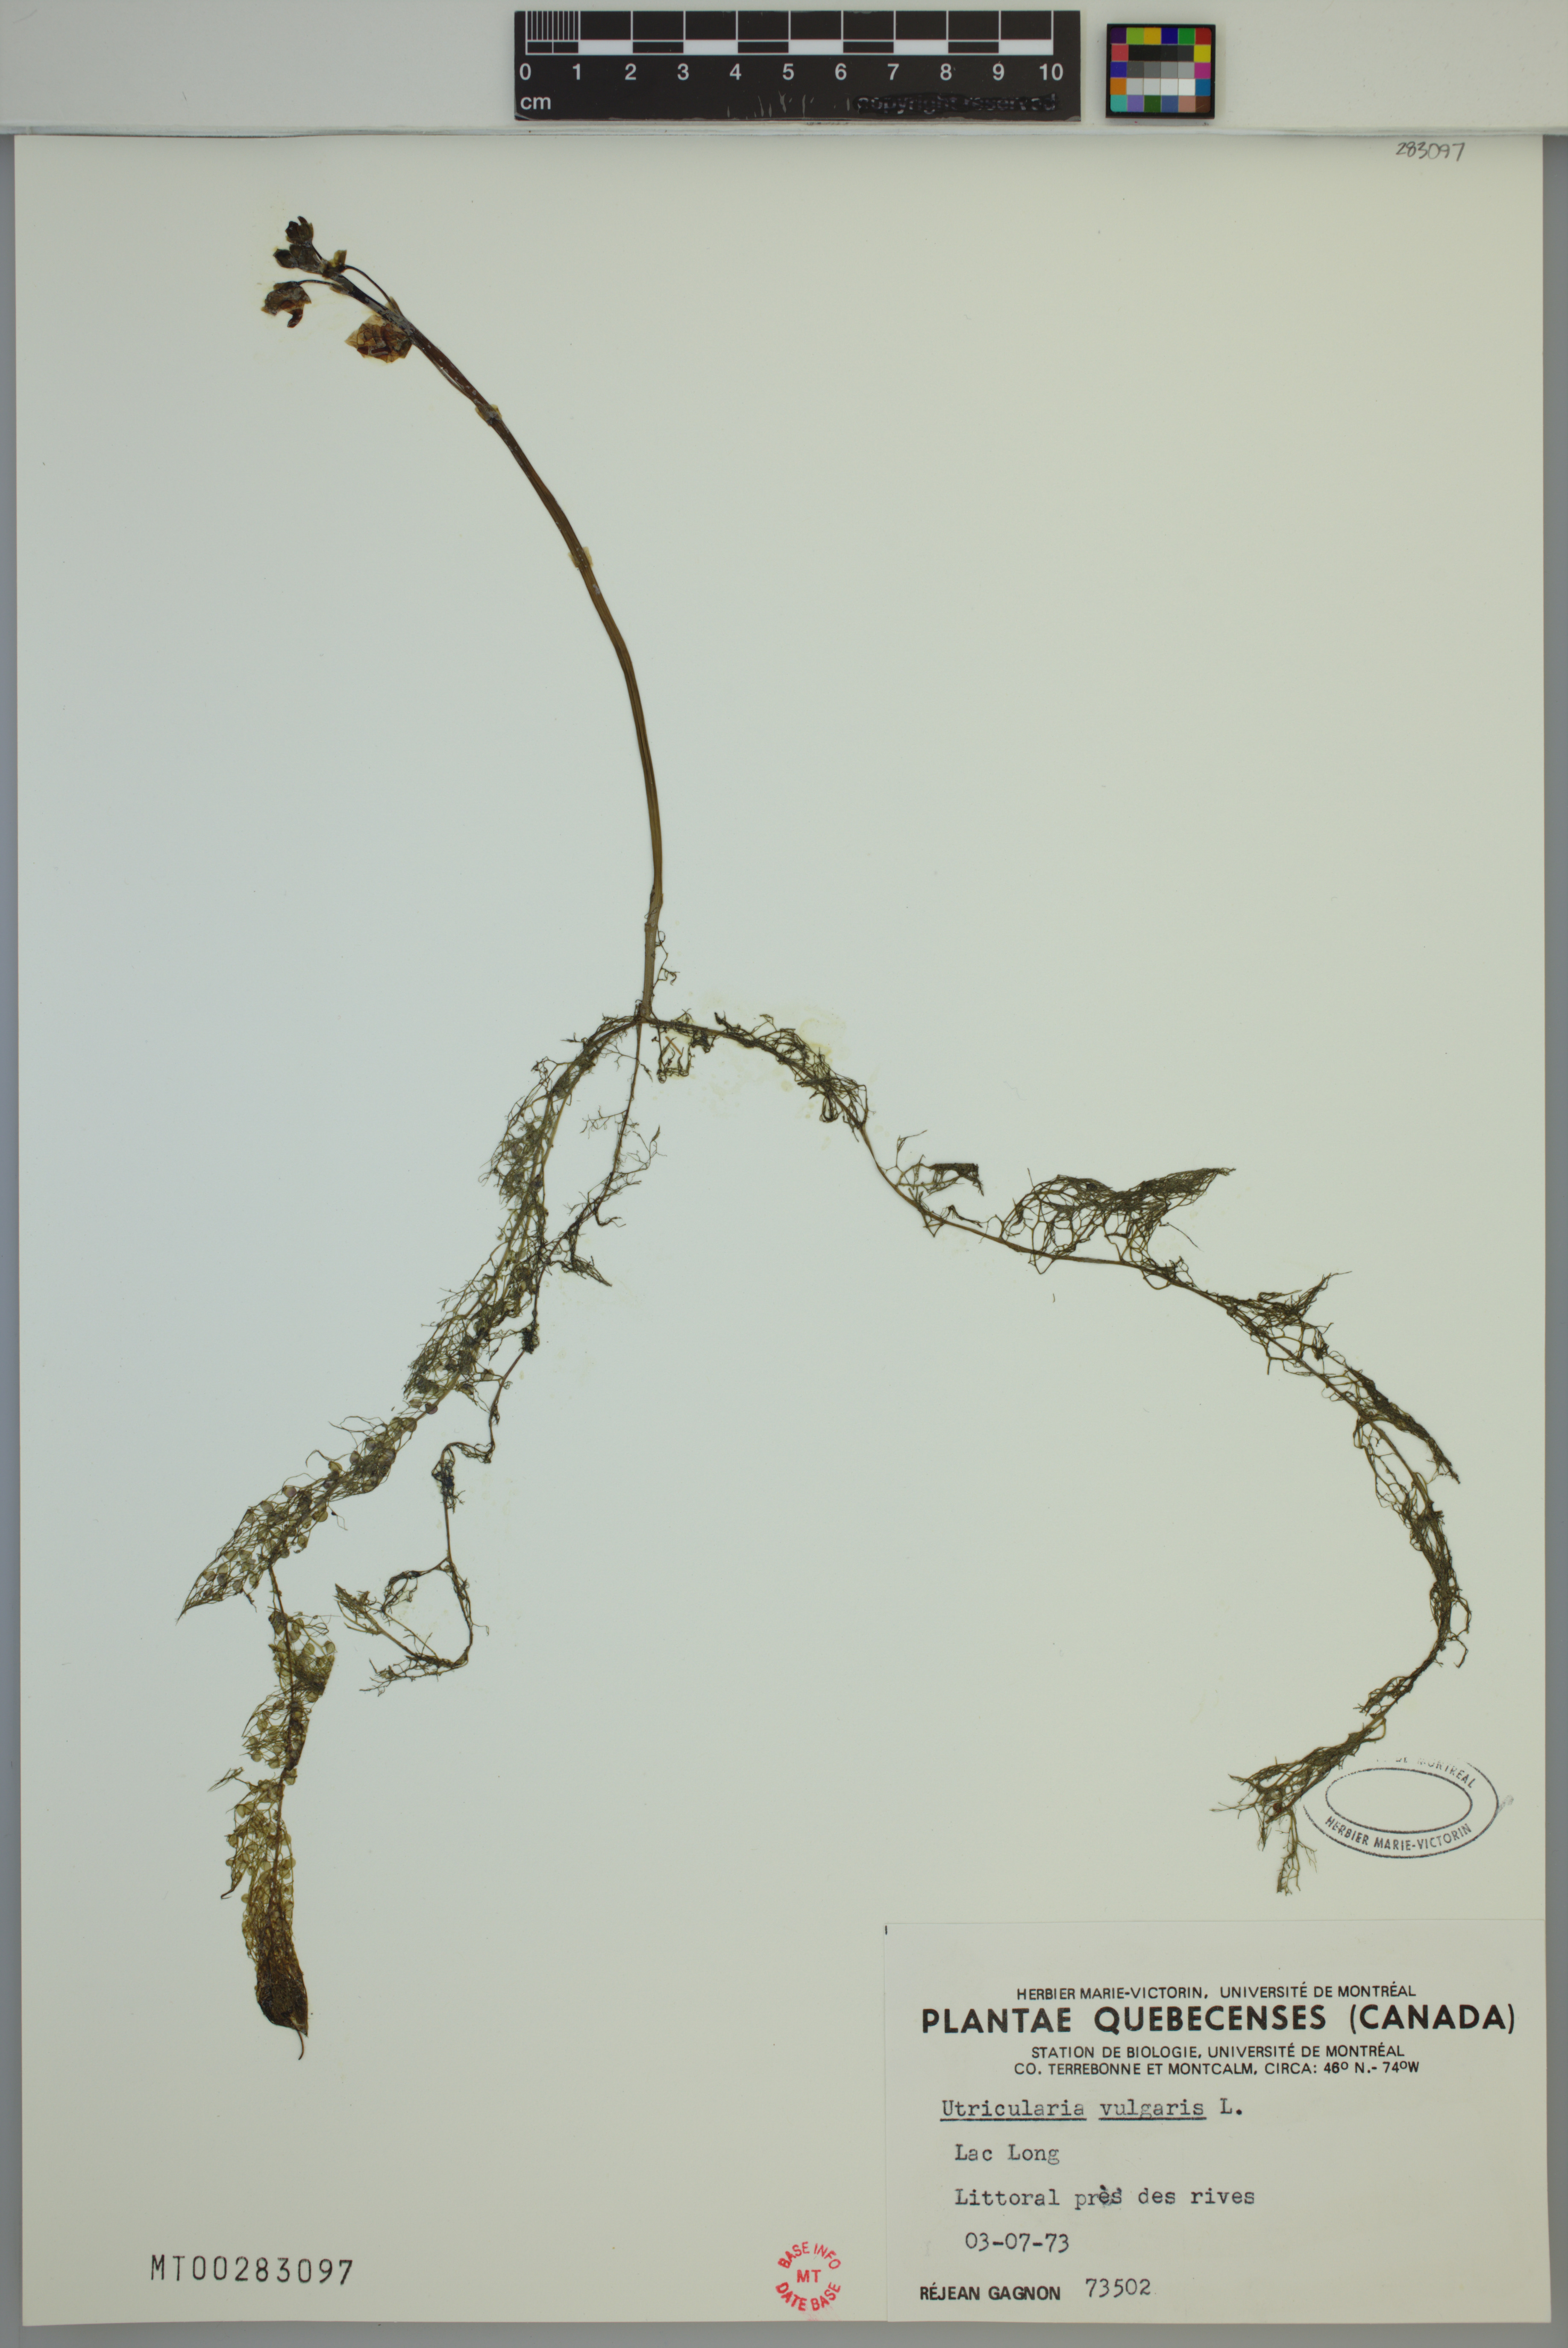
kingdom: Plantae
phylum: Tracheophyta
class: Magnoliopsida
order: Lamiales
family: Lentibulariaceae
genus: Utricularia
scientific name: Utricularia macrorhiza
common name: Common bladderwort
